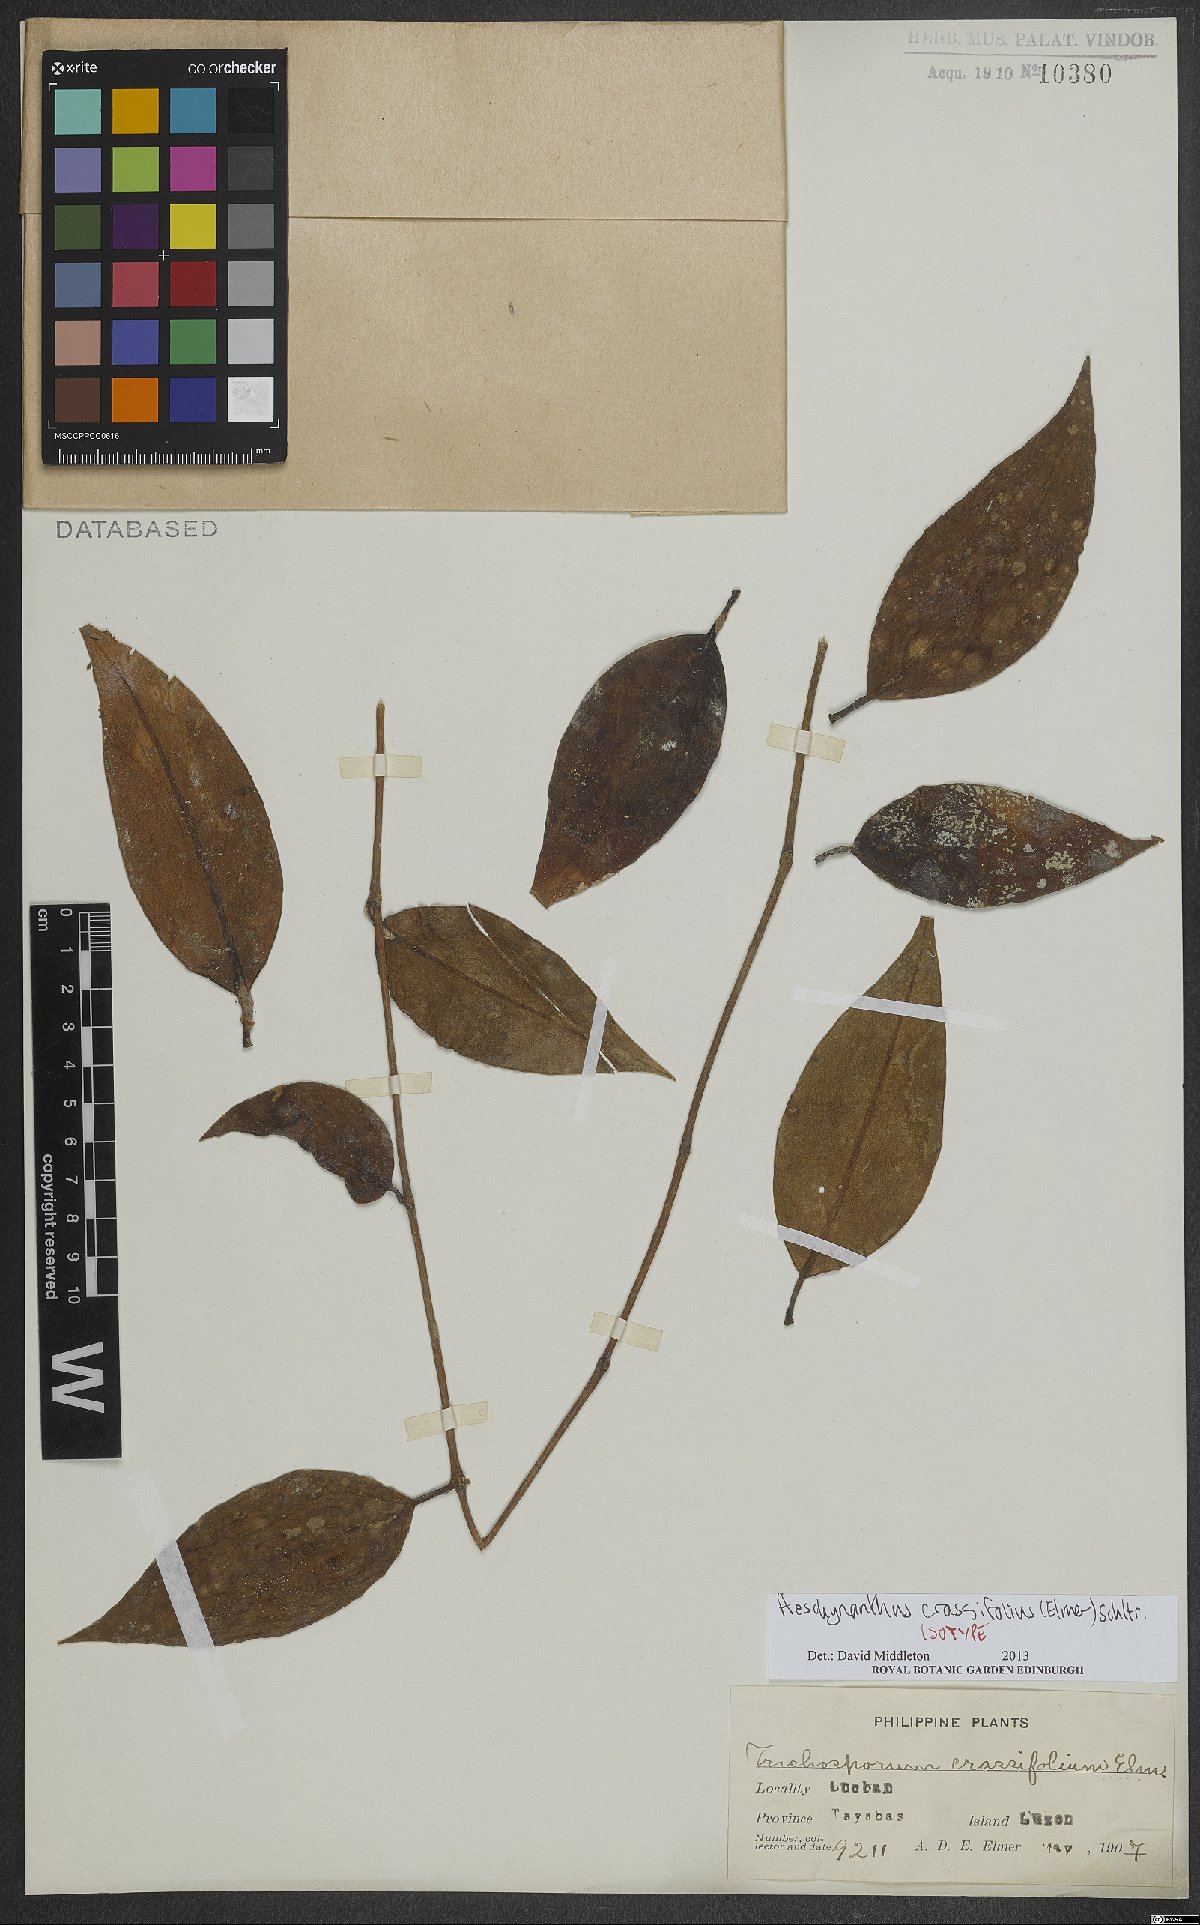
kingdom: Plantae
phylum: Tracheophyta
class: Magnoliopsida
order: Lamiales
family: Gesneriaceae
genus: Aeschynanthus
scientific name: Aeschynanthus crassifolius
